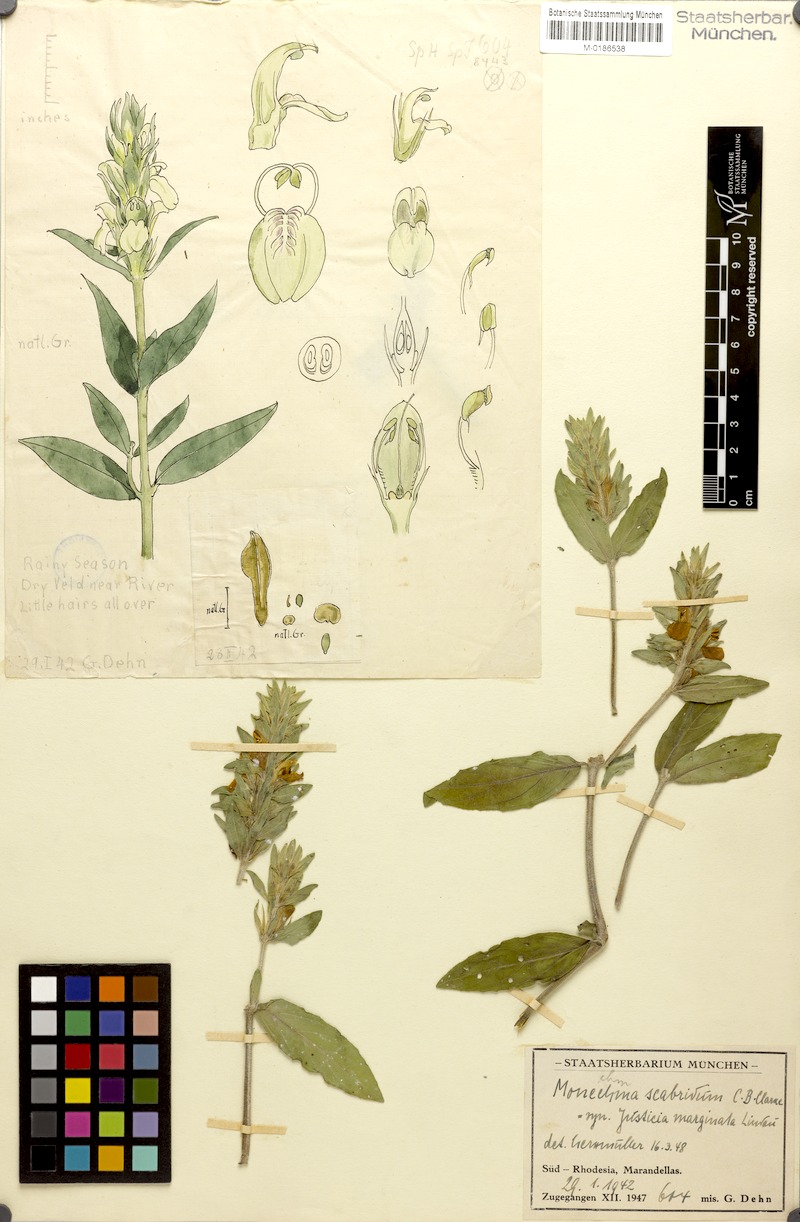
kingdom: Plantae
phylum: Tracheophyta
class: Magnoliopsida
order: Lamiales
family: Acanthaceae
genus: Monechma
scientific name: Monechma scabridum
